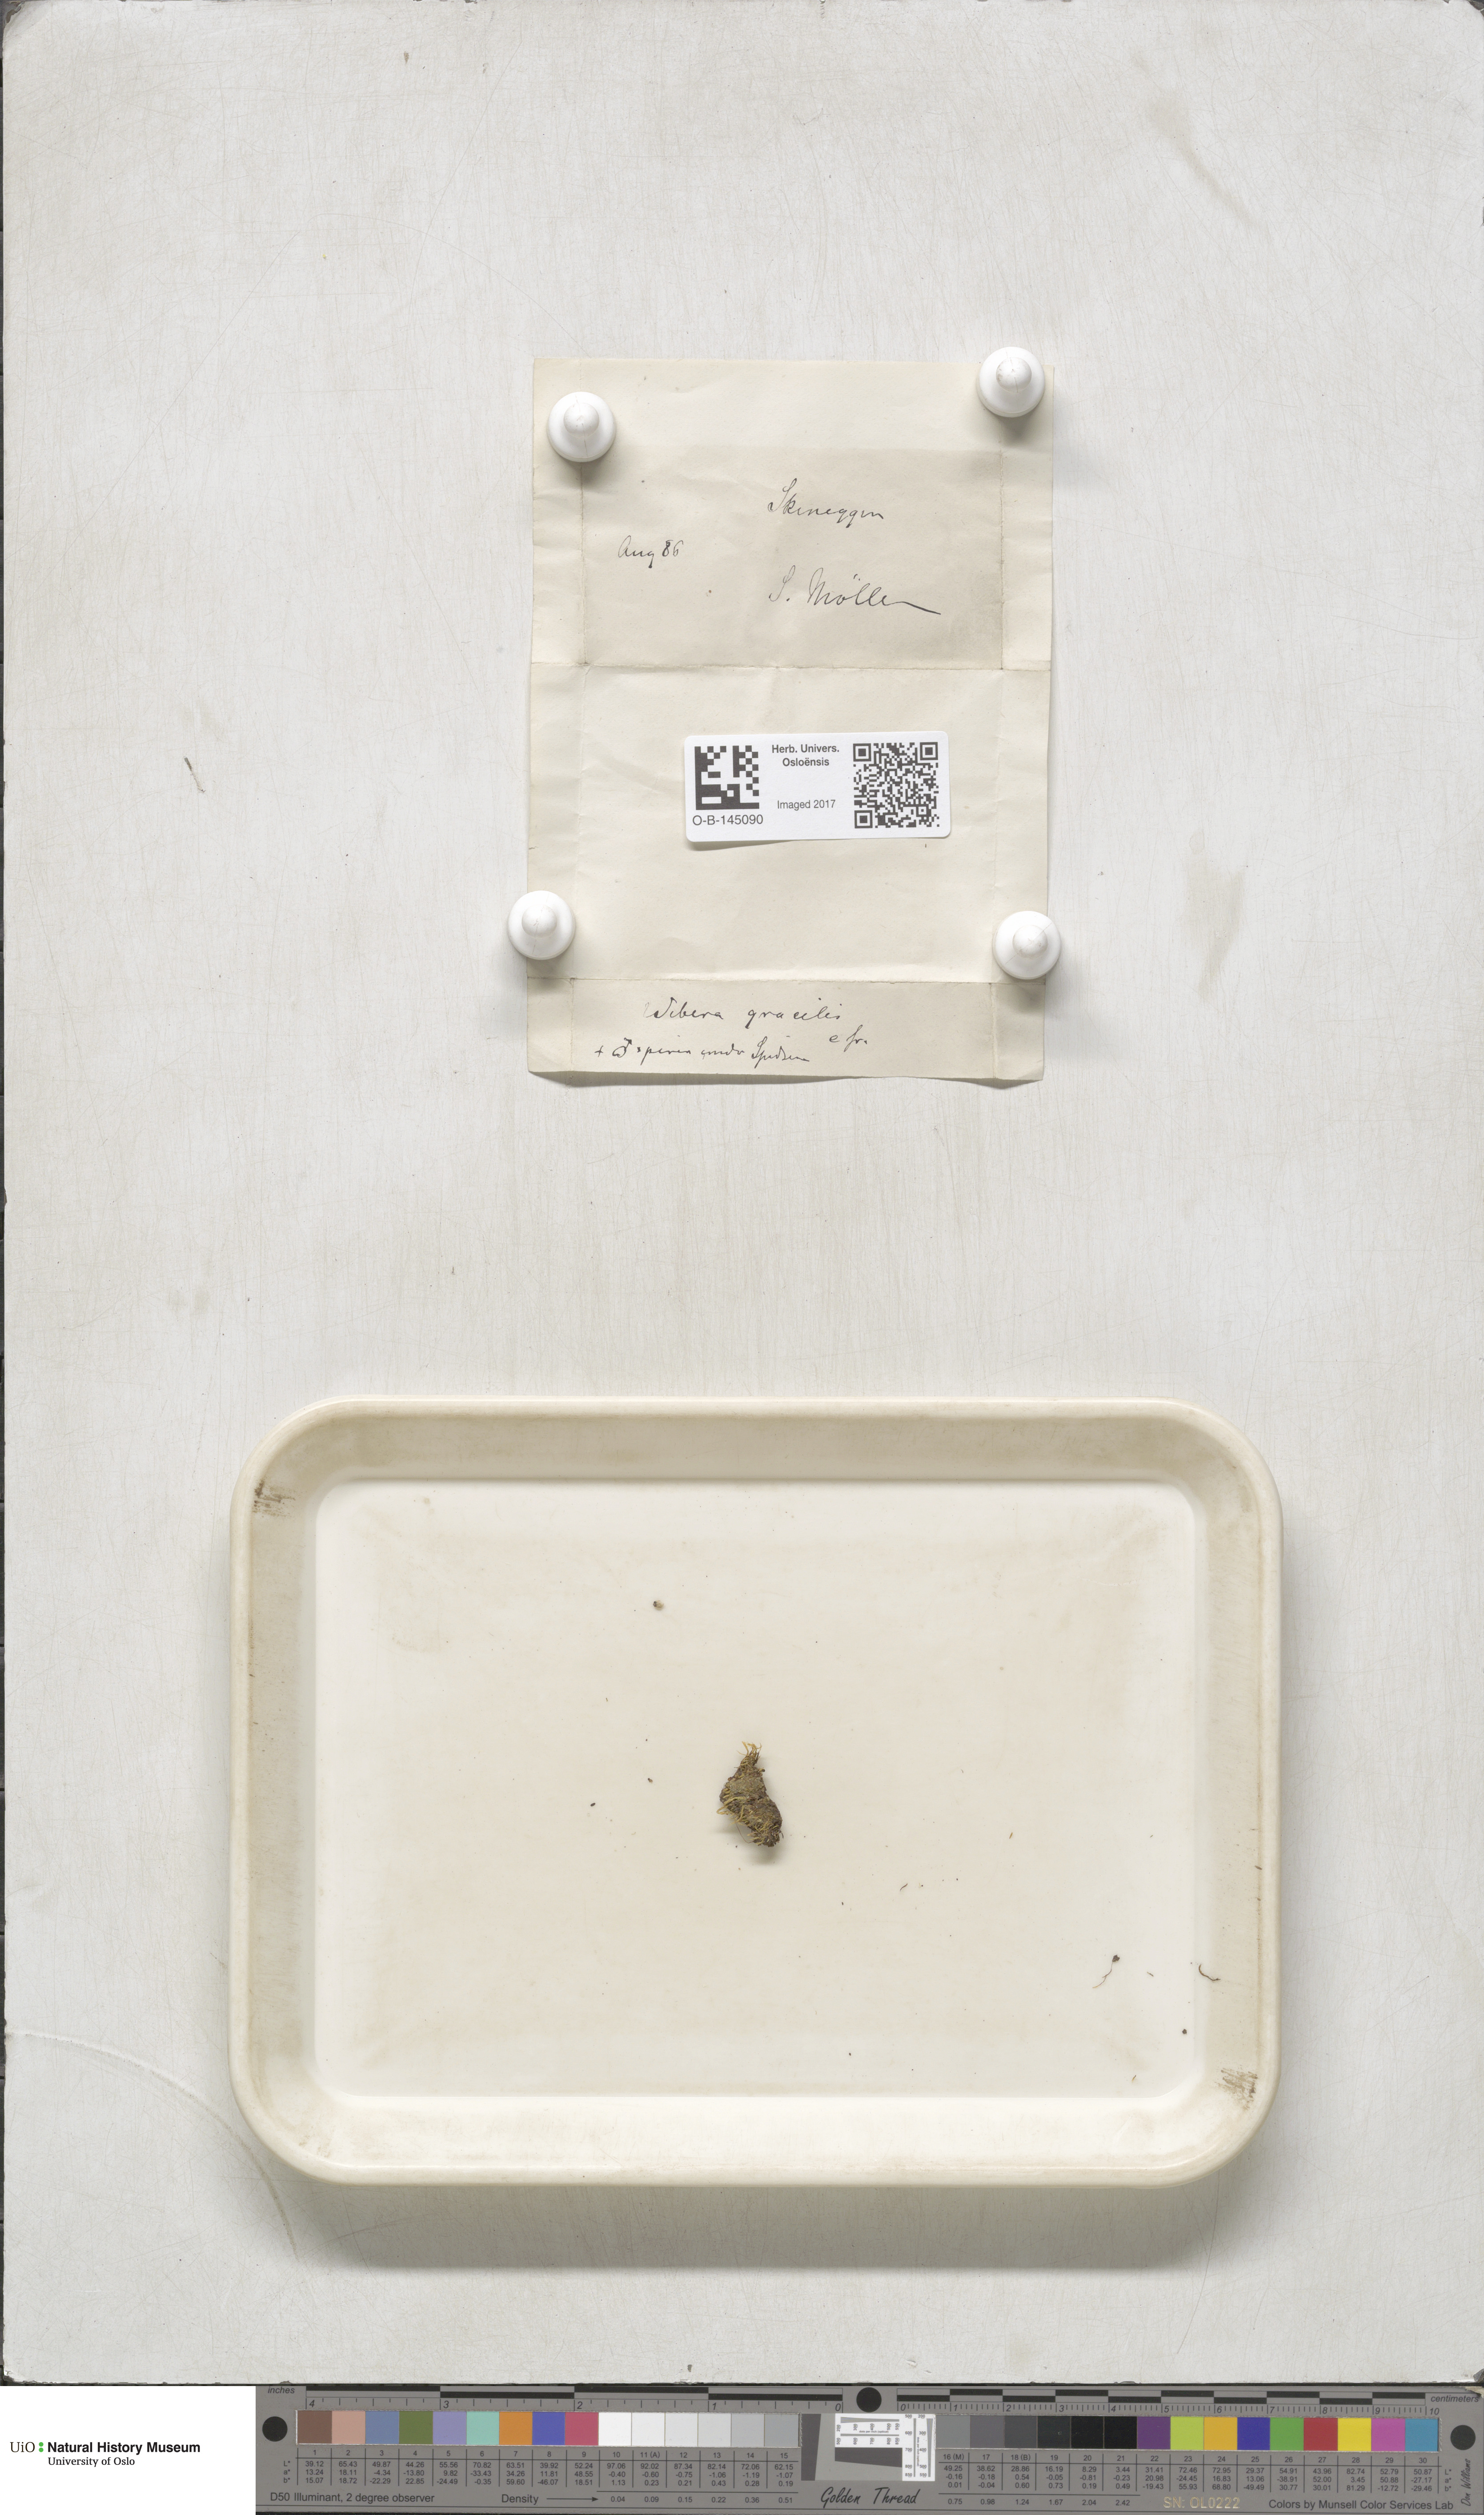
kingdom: Plantae
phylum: Bryophyta
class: Bryopsida
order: Bryales
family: Mniaceae
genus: Pohlia
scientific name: Pohlia filum
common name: Slender nodding moss
